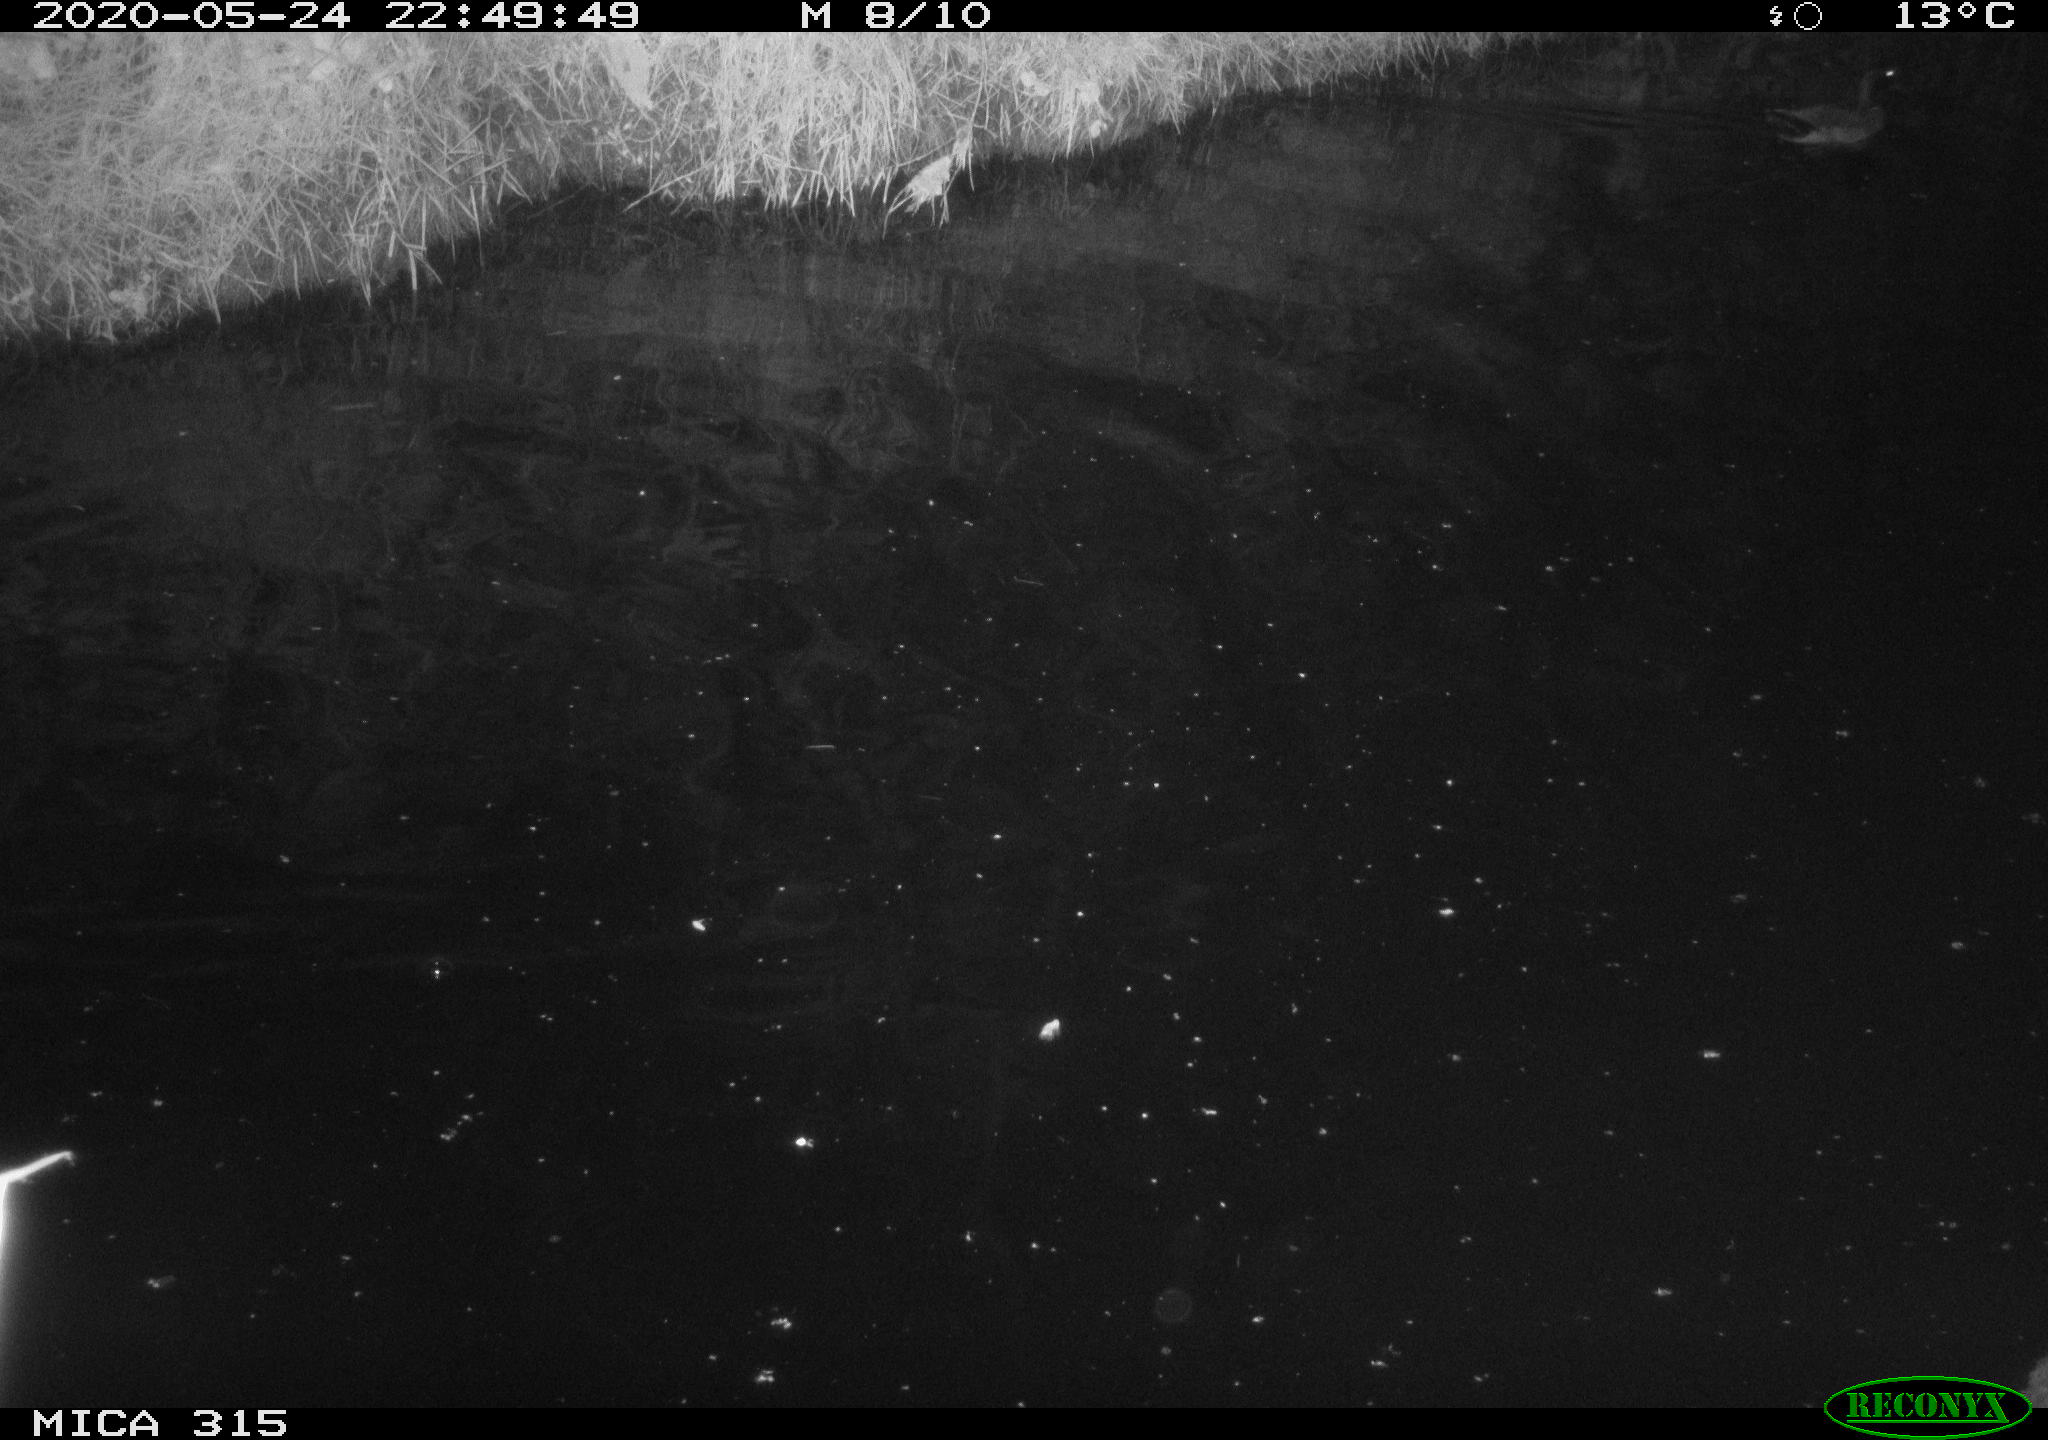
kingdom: Animalia
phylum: Chordata
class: Aves
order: Anseriformes
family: Anatidae
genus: Anas
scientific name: Anas platyrhynchos
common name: Mallard
